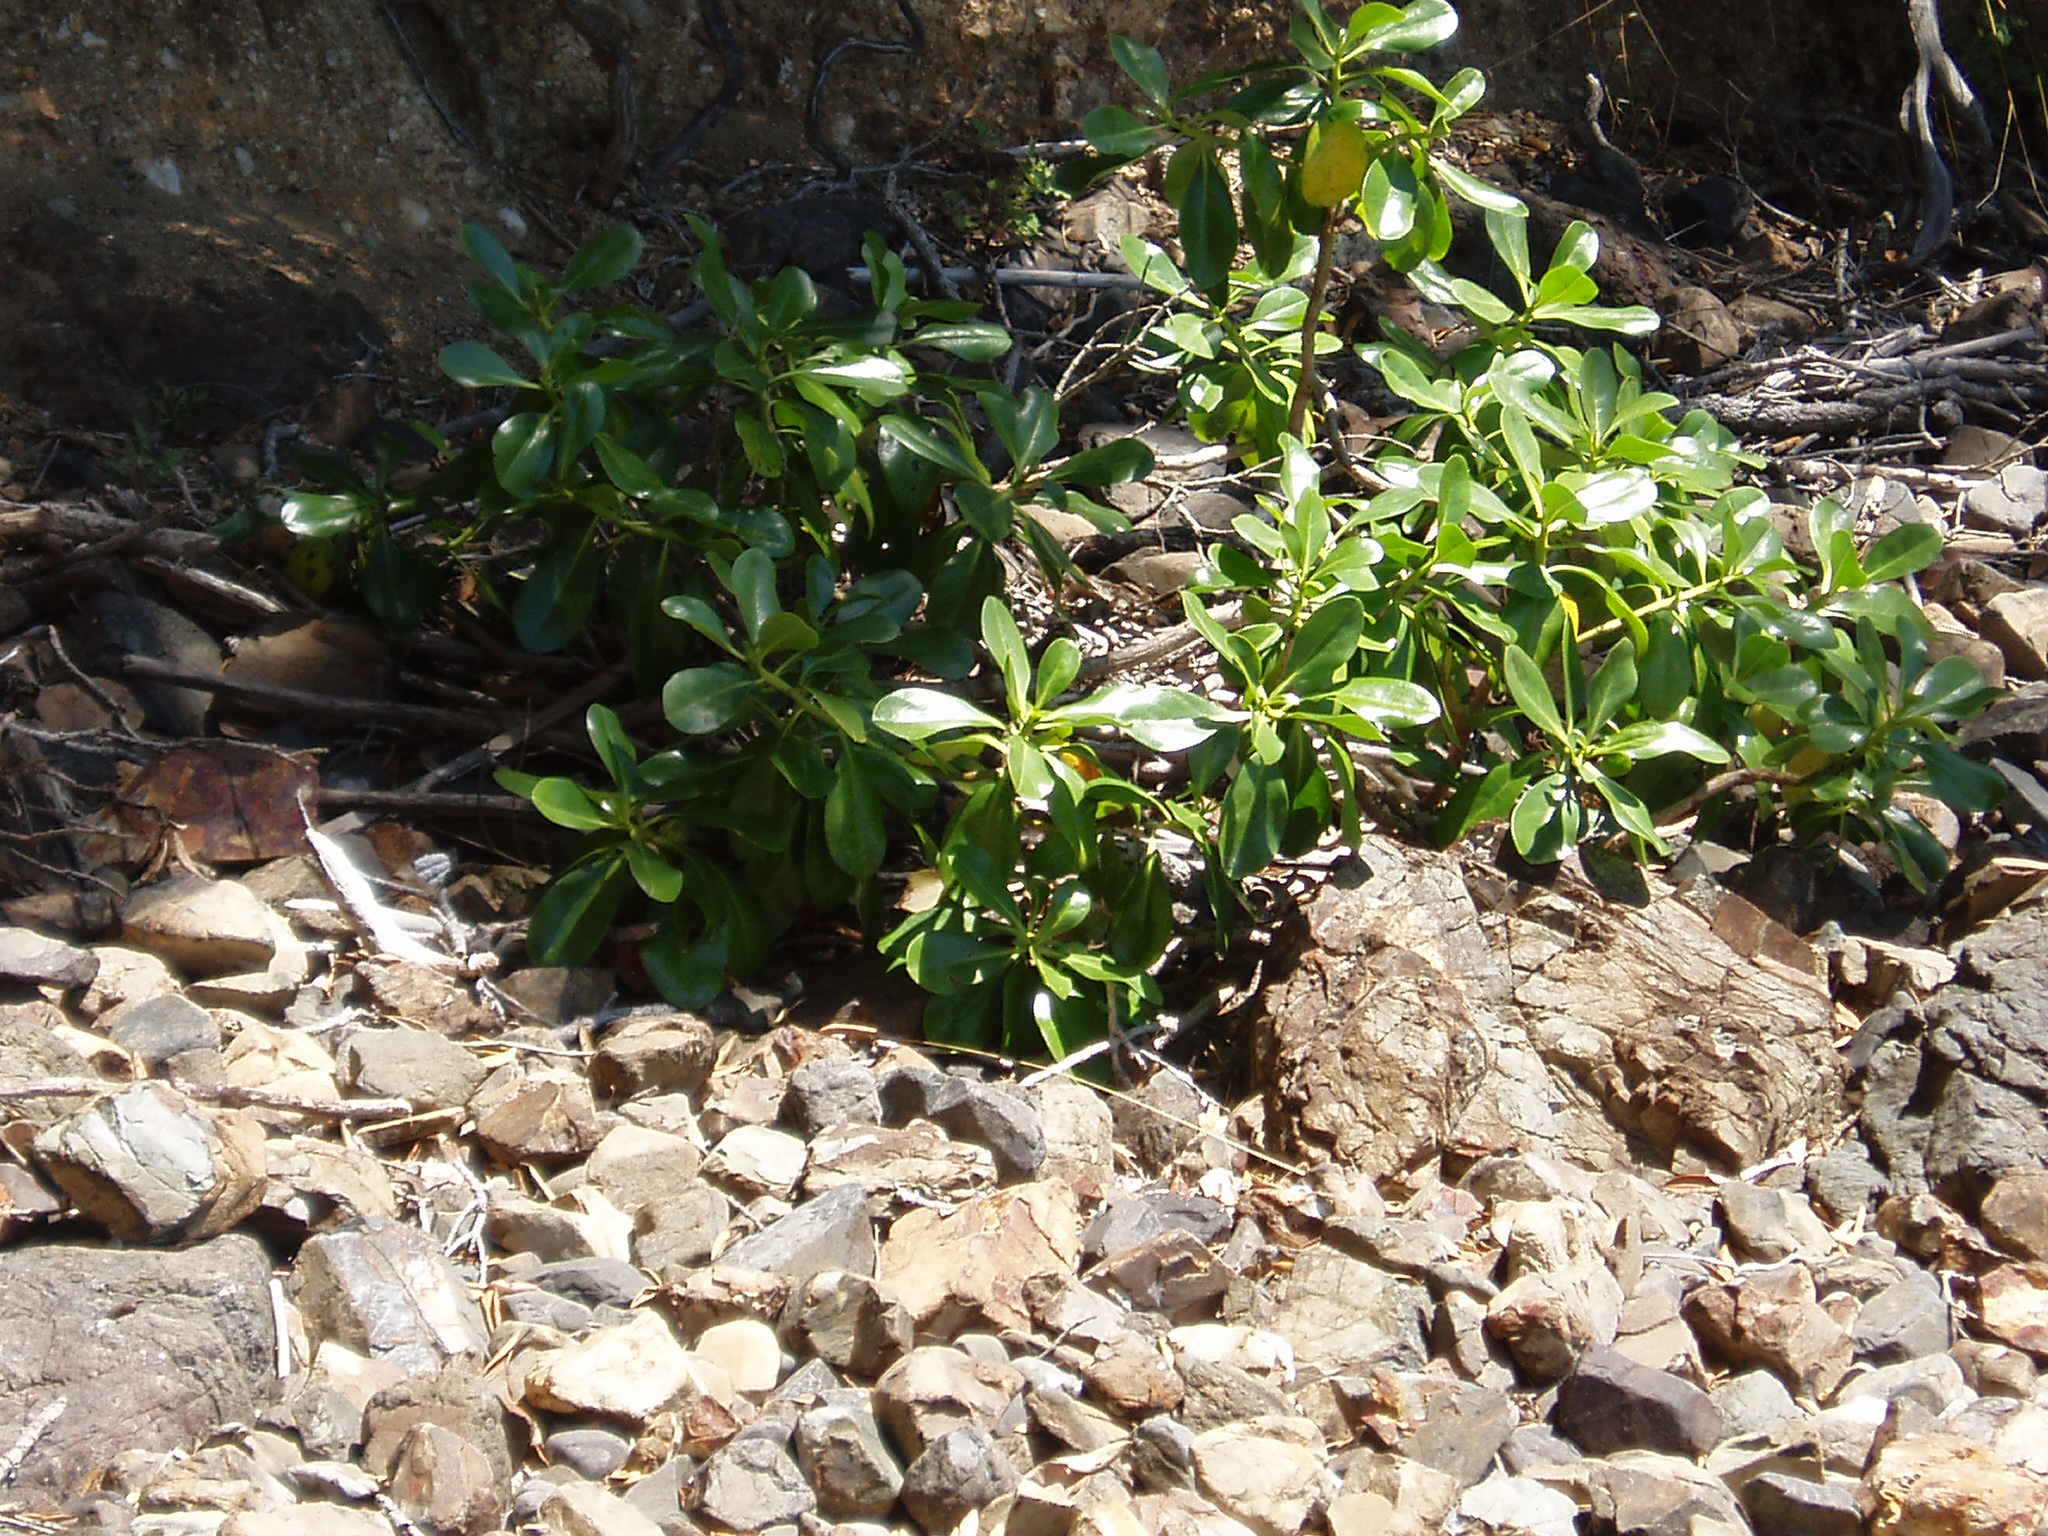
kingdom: Plantae
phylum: Tracheophyta
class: Magnoliopsida
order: Lamiales
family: Scrophulariaceae
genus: Myoporum
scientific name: Myoporum laetum
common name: Ngaio tree
